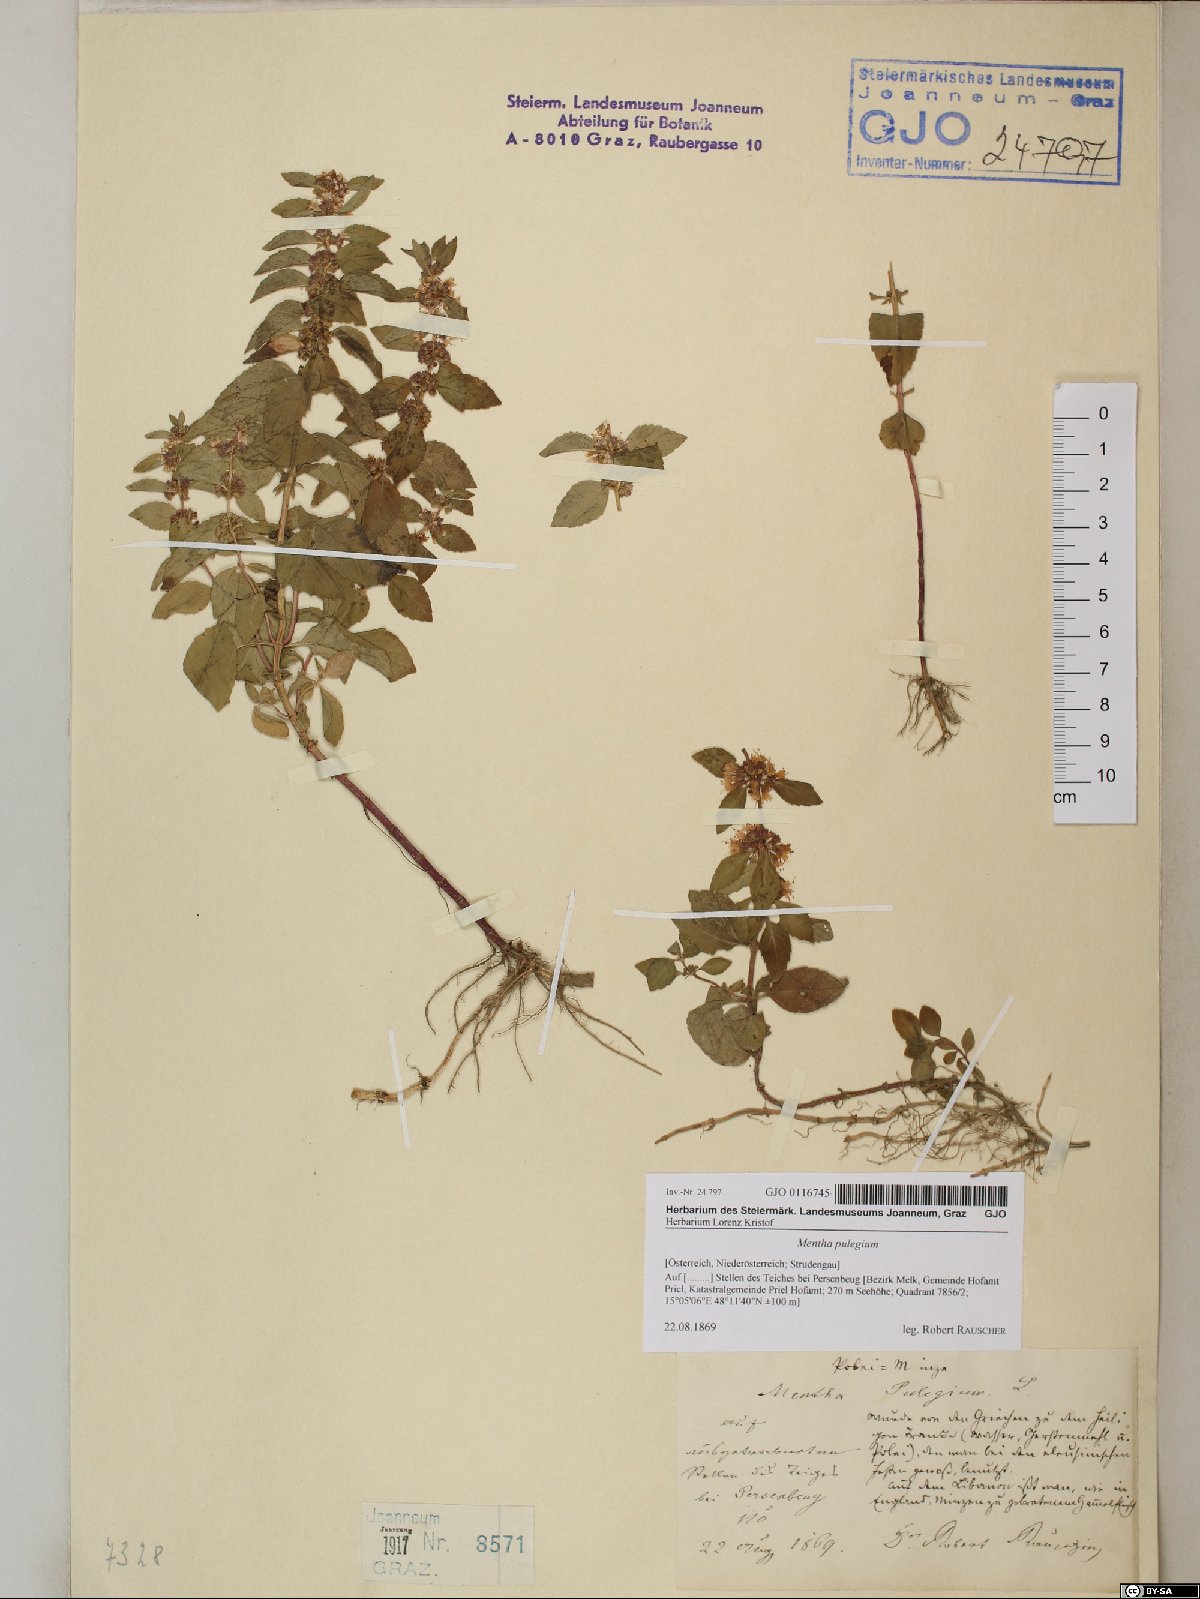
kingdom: Plantae
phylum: Tracheophyta
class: Magnoliopsida
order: Lamiales
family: Lamiaceae
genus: Mentha
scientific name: Mentha pulegium
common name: Pennyroyal
